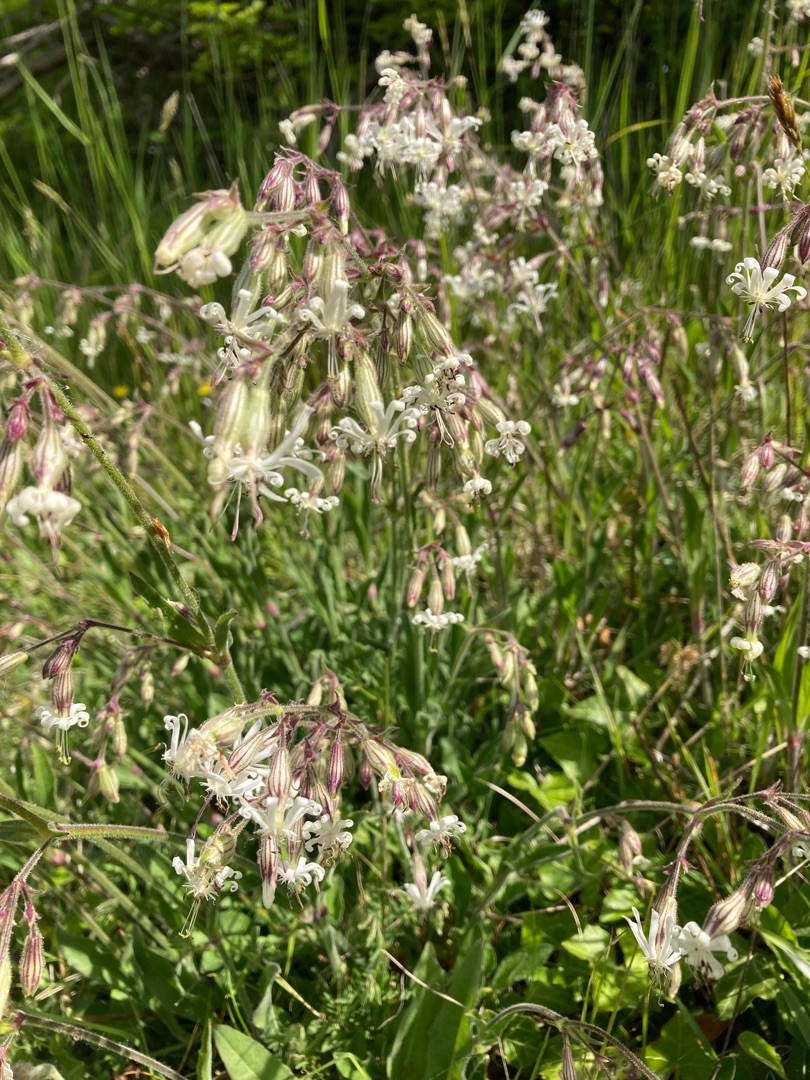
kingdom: Plantae
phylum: Tracheophyta
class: Magnoliopsida
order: Caryophyllales
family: Caryophyllaceae
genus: Silene
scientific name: Silene nutans
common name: Nikkende limurt
